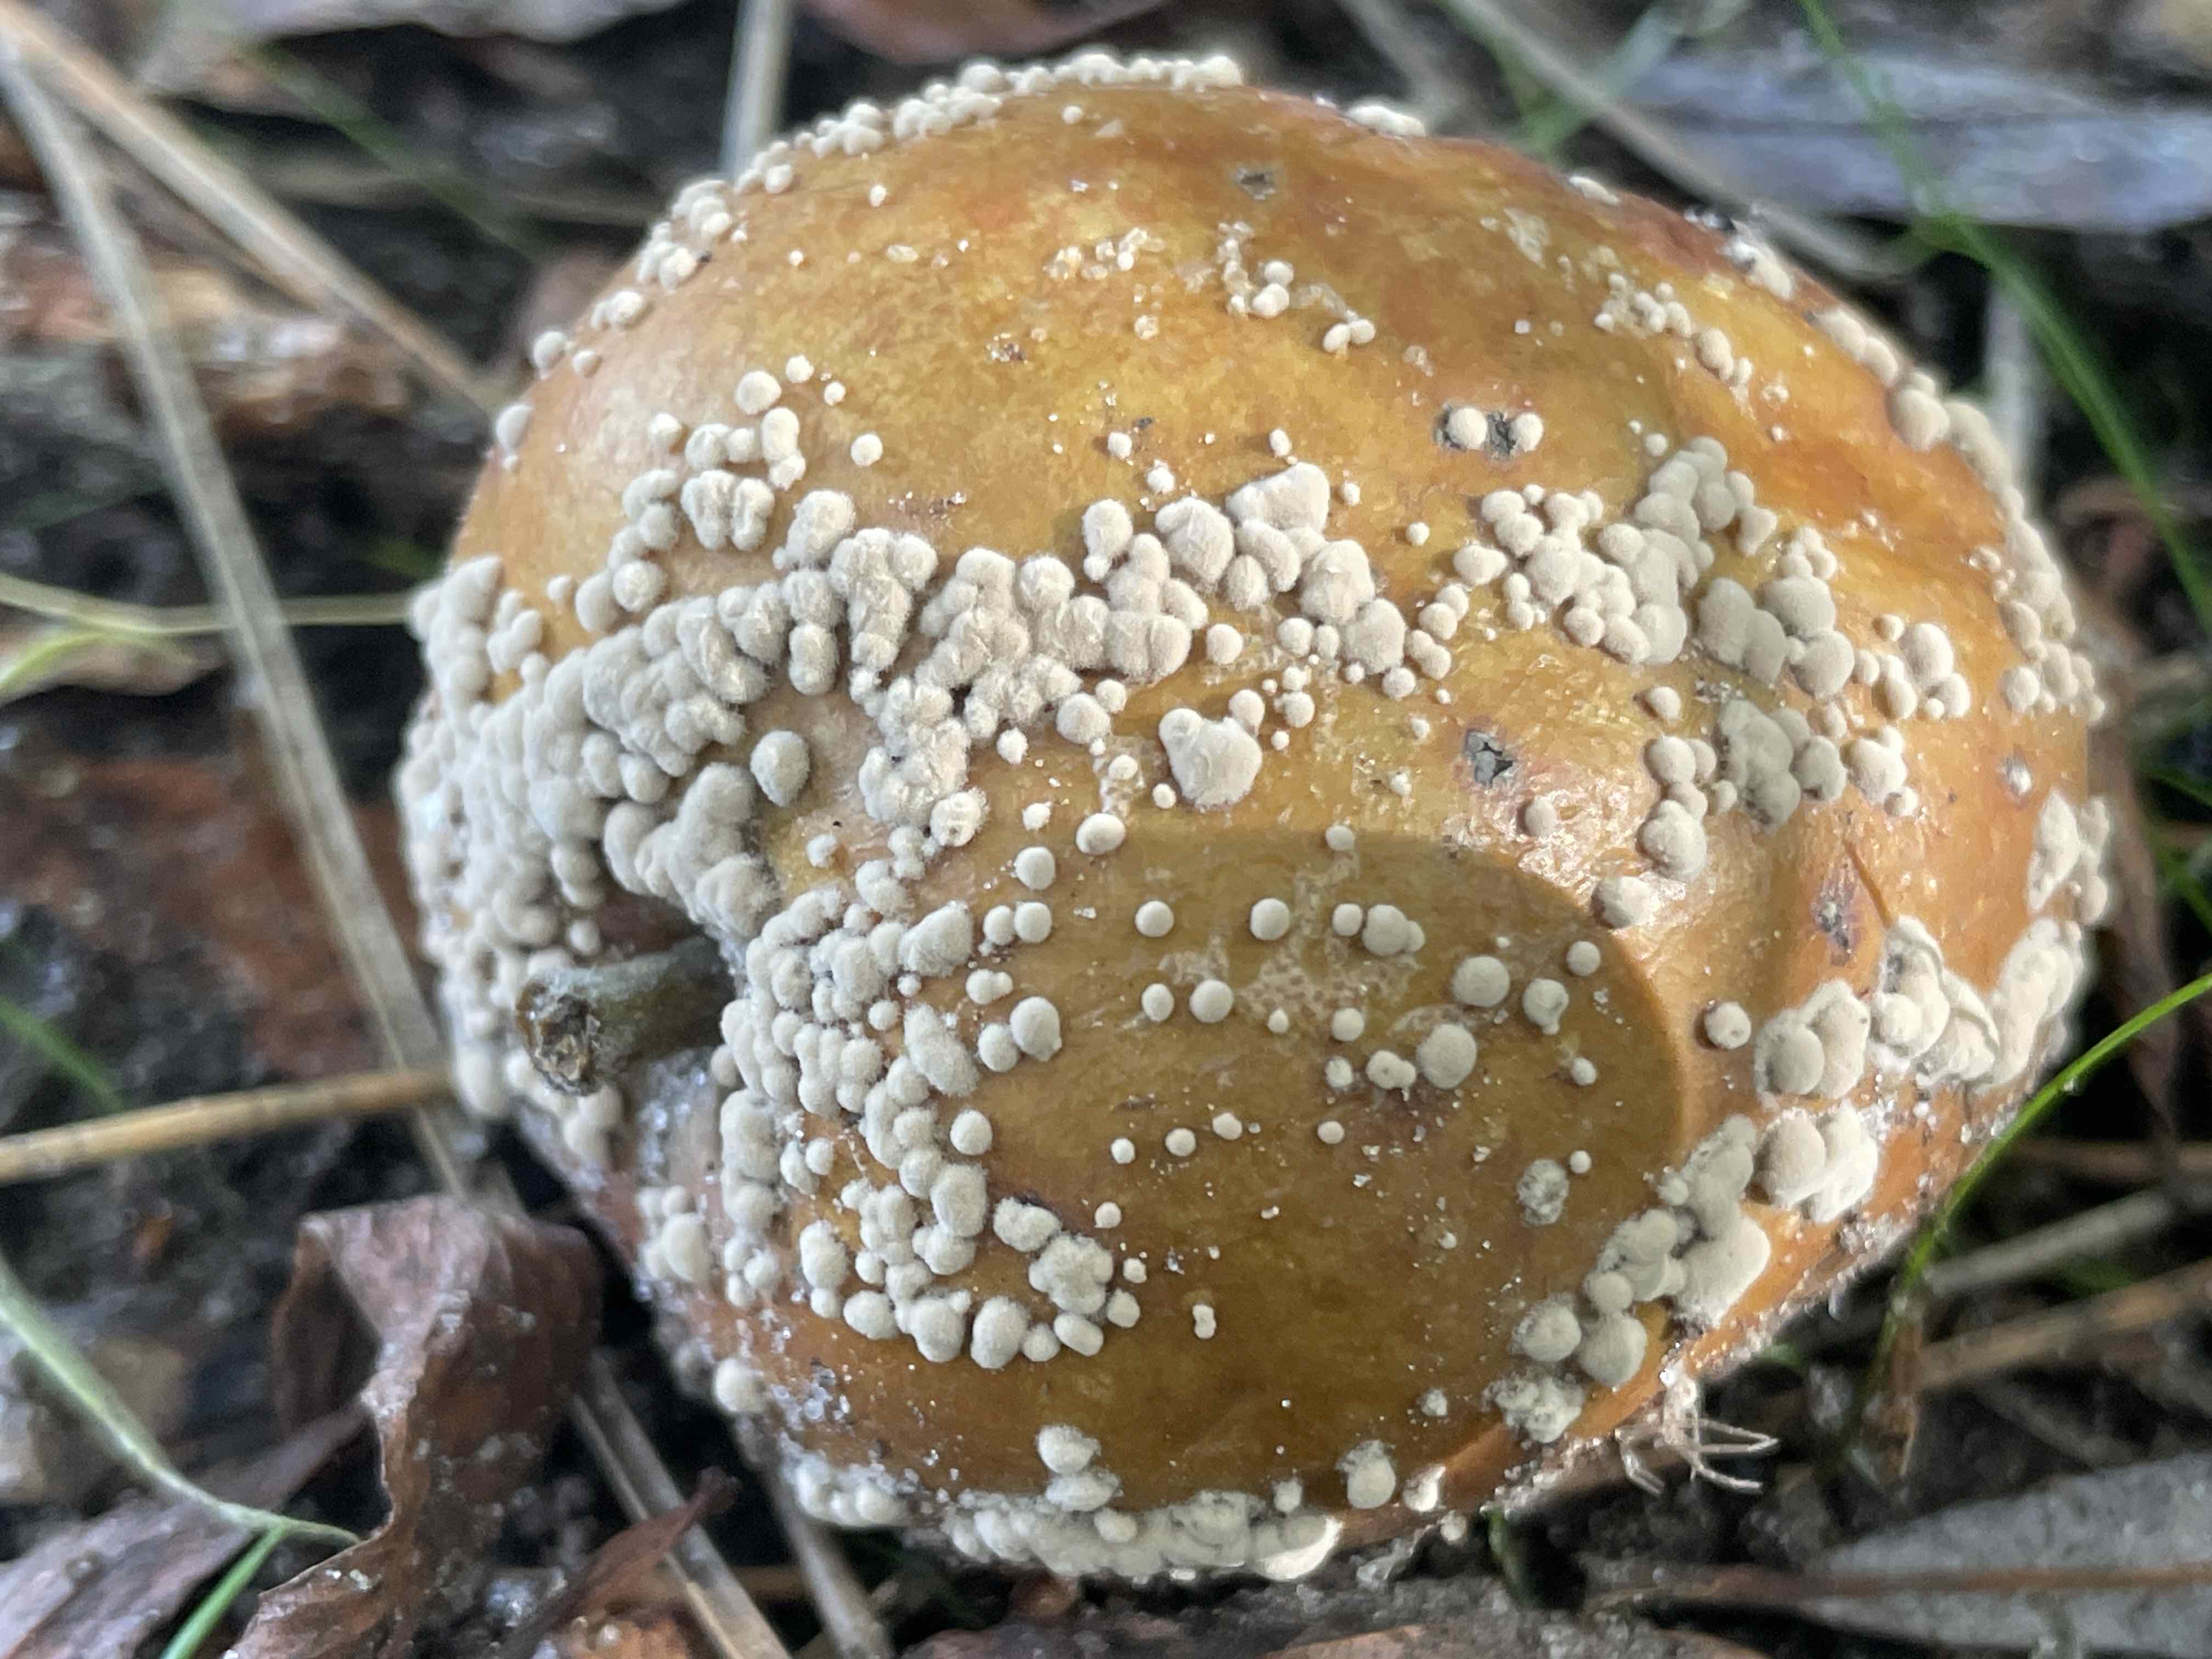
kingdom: Fungi
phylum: Ascomycota
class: Leotiomycetes
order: Helotiales
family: Sclerotiniaceae
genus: Monilinia
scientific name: Monilinia fructigena
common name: æble-knoldskive
